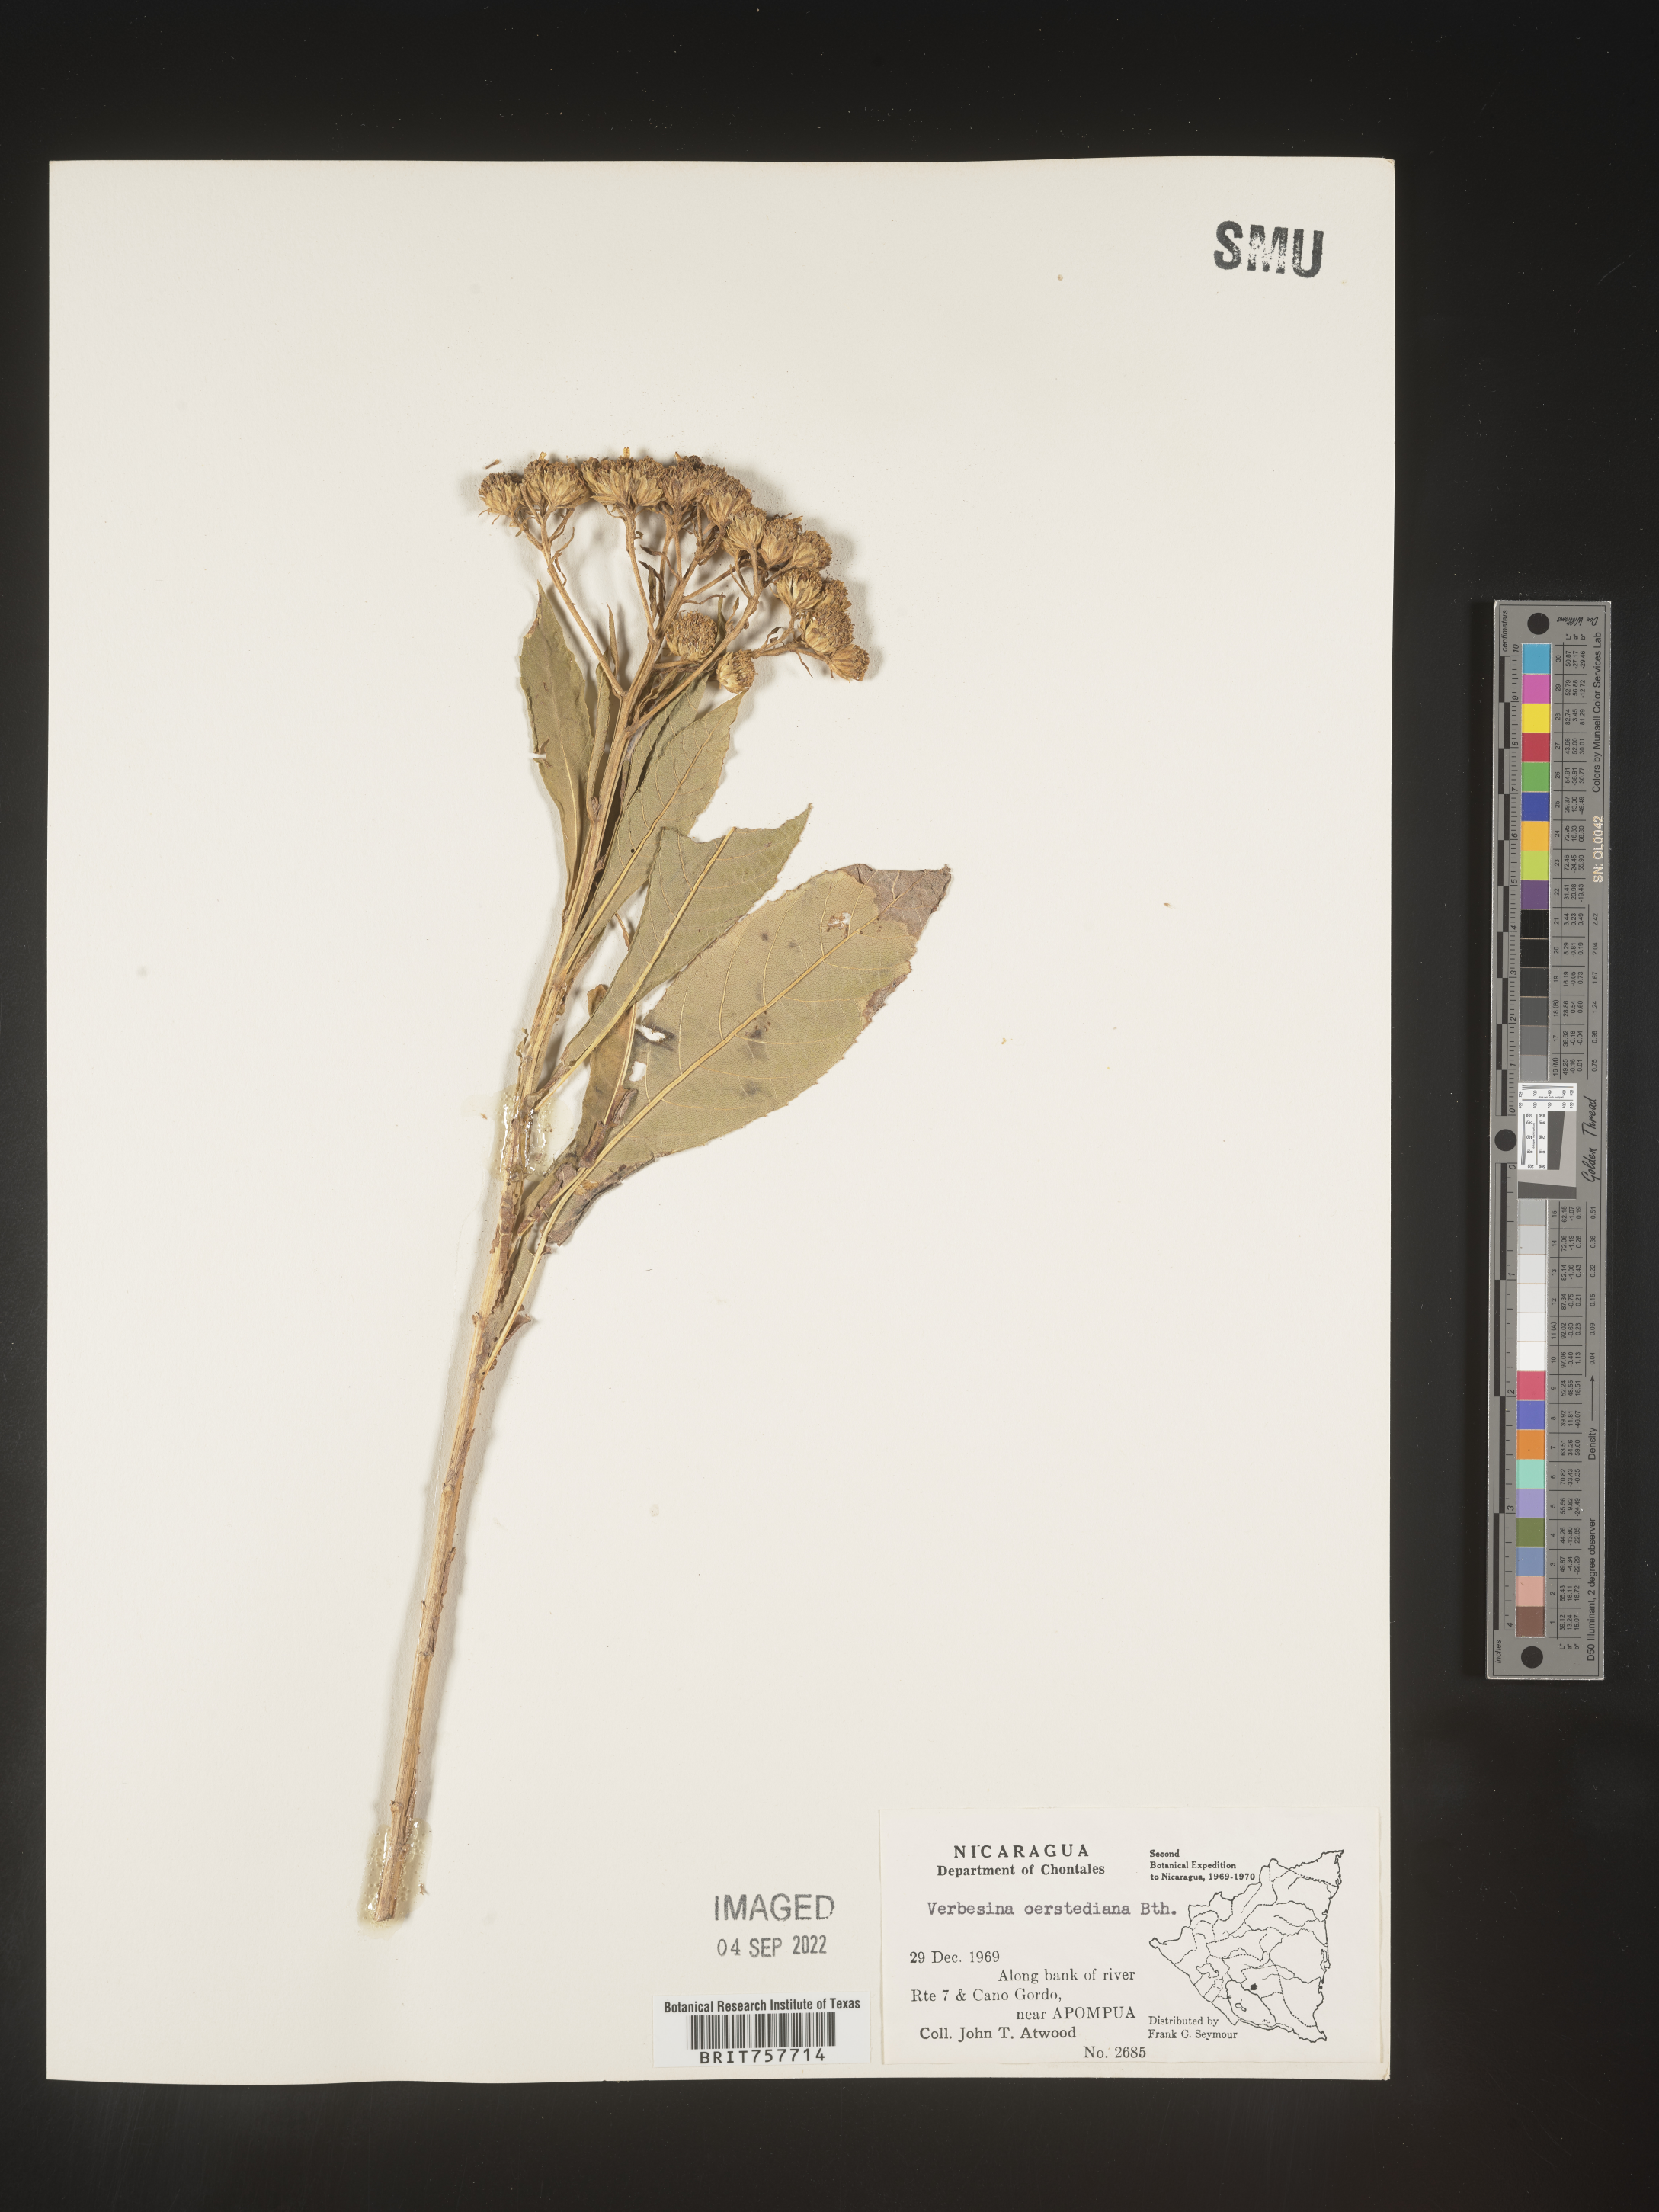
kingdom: Plantae
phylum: Tracheophyta
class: Magnoliopsida
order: Asterales
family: Asteraceae
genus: Verbesina
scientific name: Verbesina
